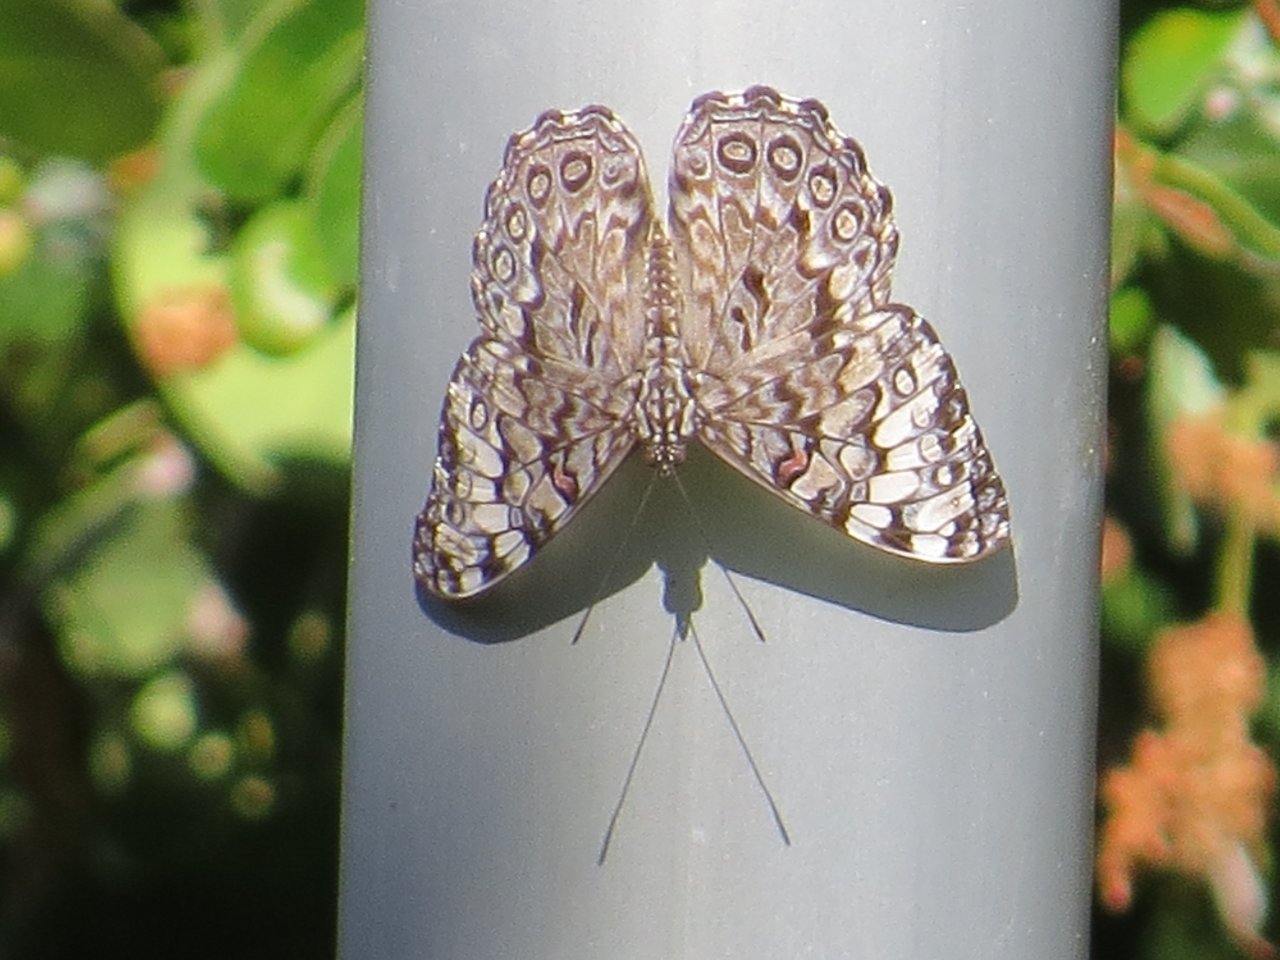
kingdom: Animalia
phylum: Arthropoda
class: Insecta
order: Lepidoptera
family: Nymphalidae
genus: Hamadryas
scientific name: Hamadryas februa
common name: Gray Cracker
